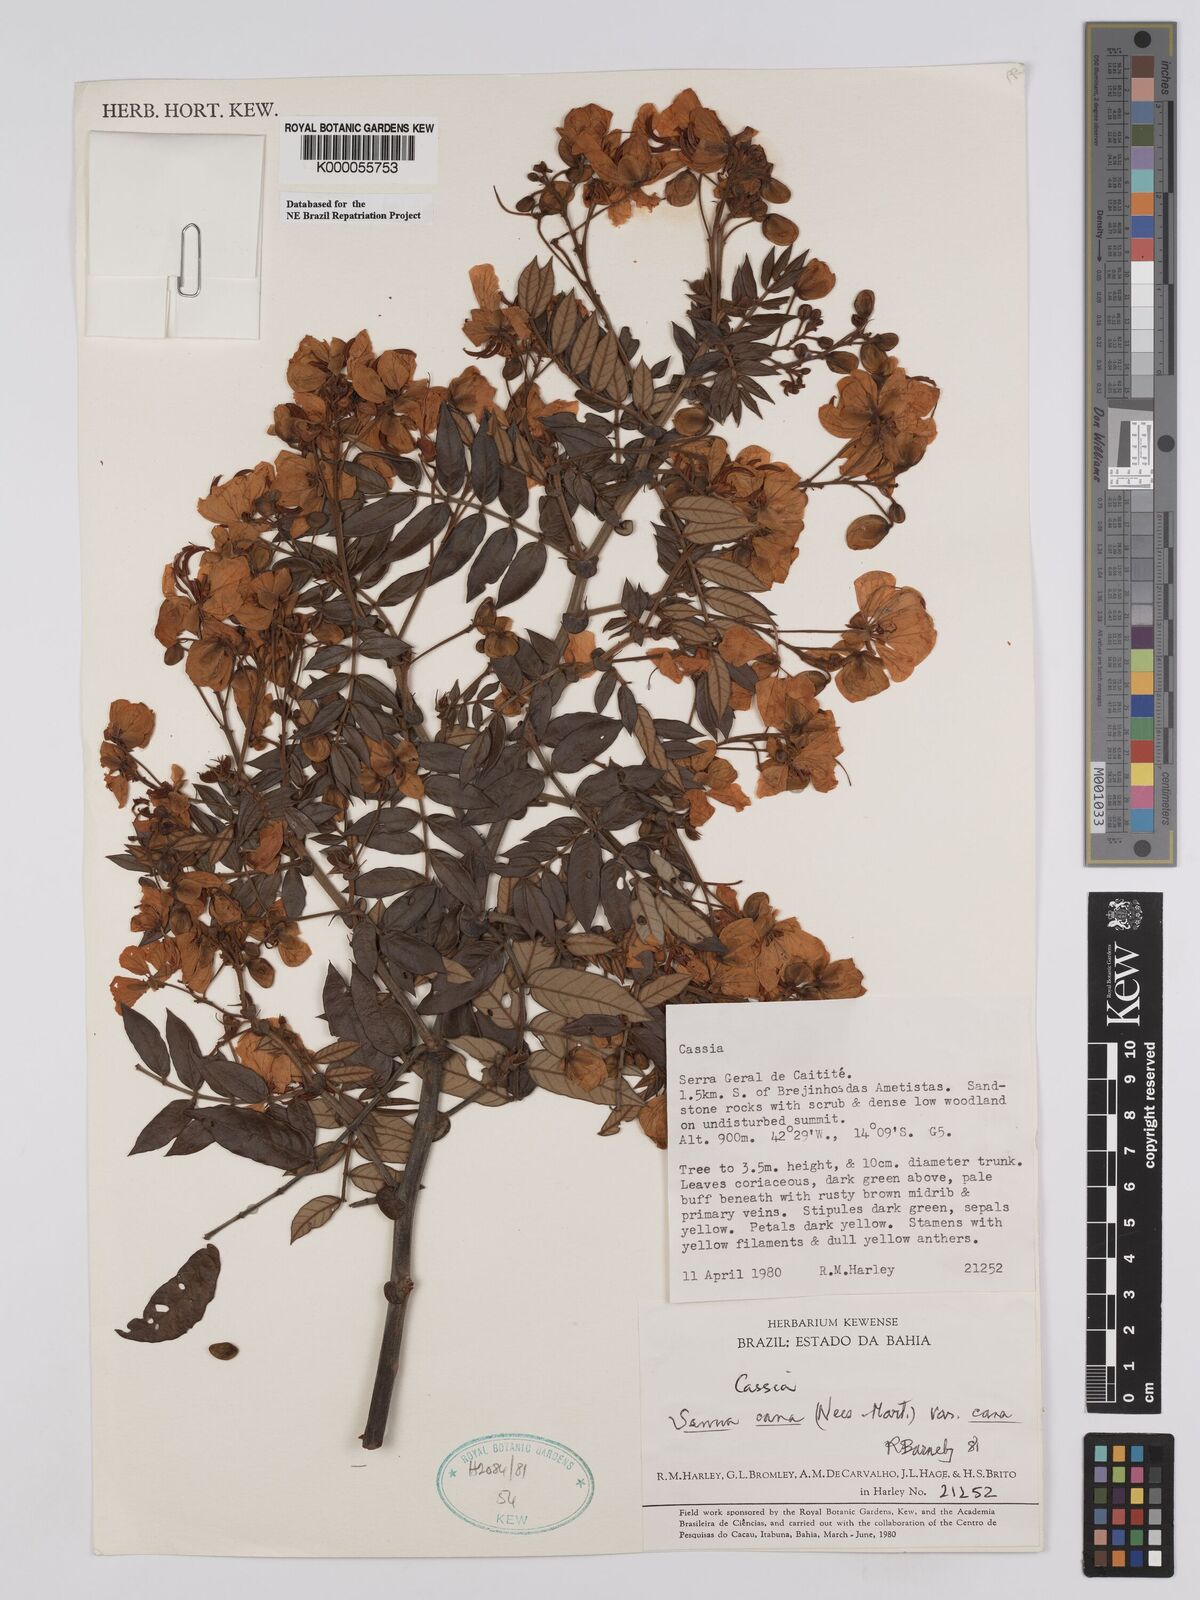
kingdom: Plantae
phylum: Tracheophyta
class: Magnoliopsida
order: Fabales
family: Fabaceae
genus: Senna
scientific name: Senna cana
